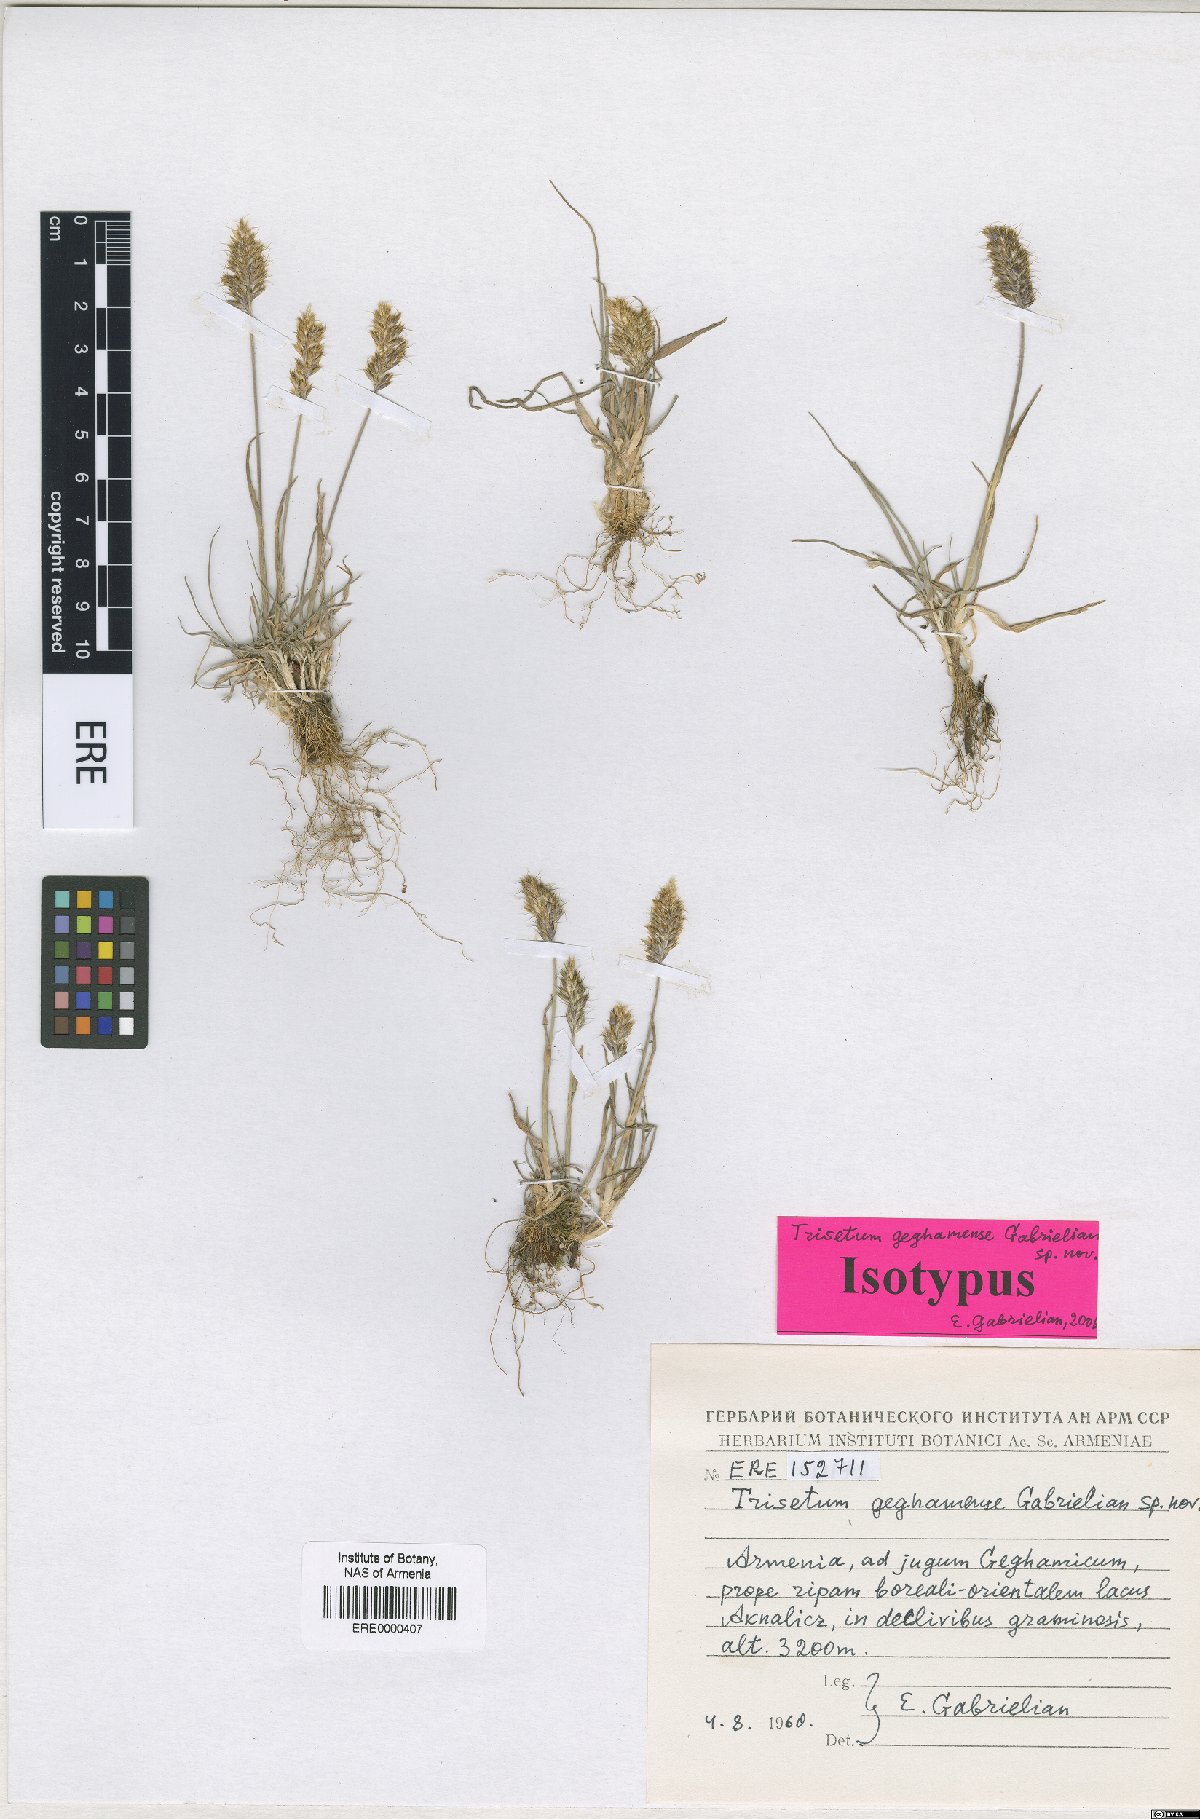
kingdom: Plantae
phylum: Tracheophyta
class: Liliopsida
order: Poales
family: Poaceae
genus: Koeleria
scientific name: Koeleria spicata
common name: Mountain trisetum
